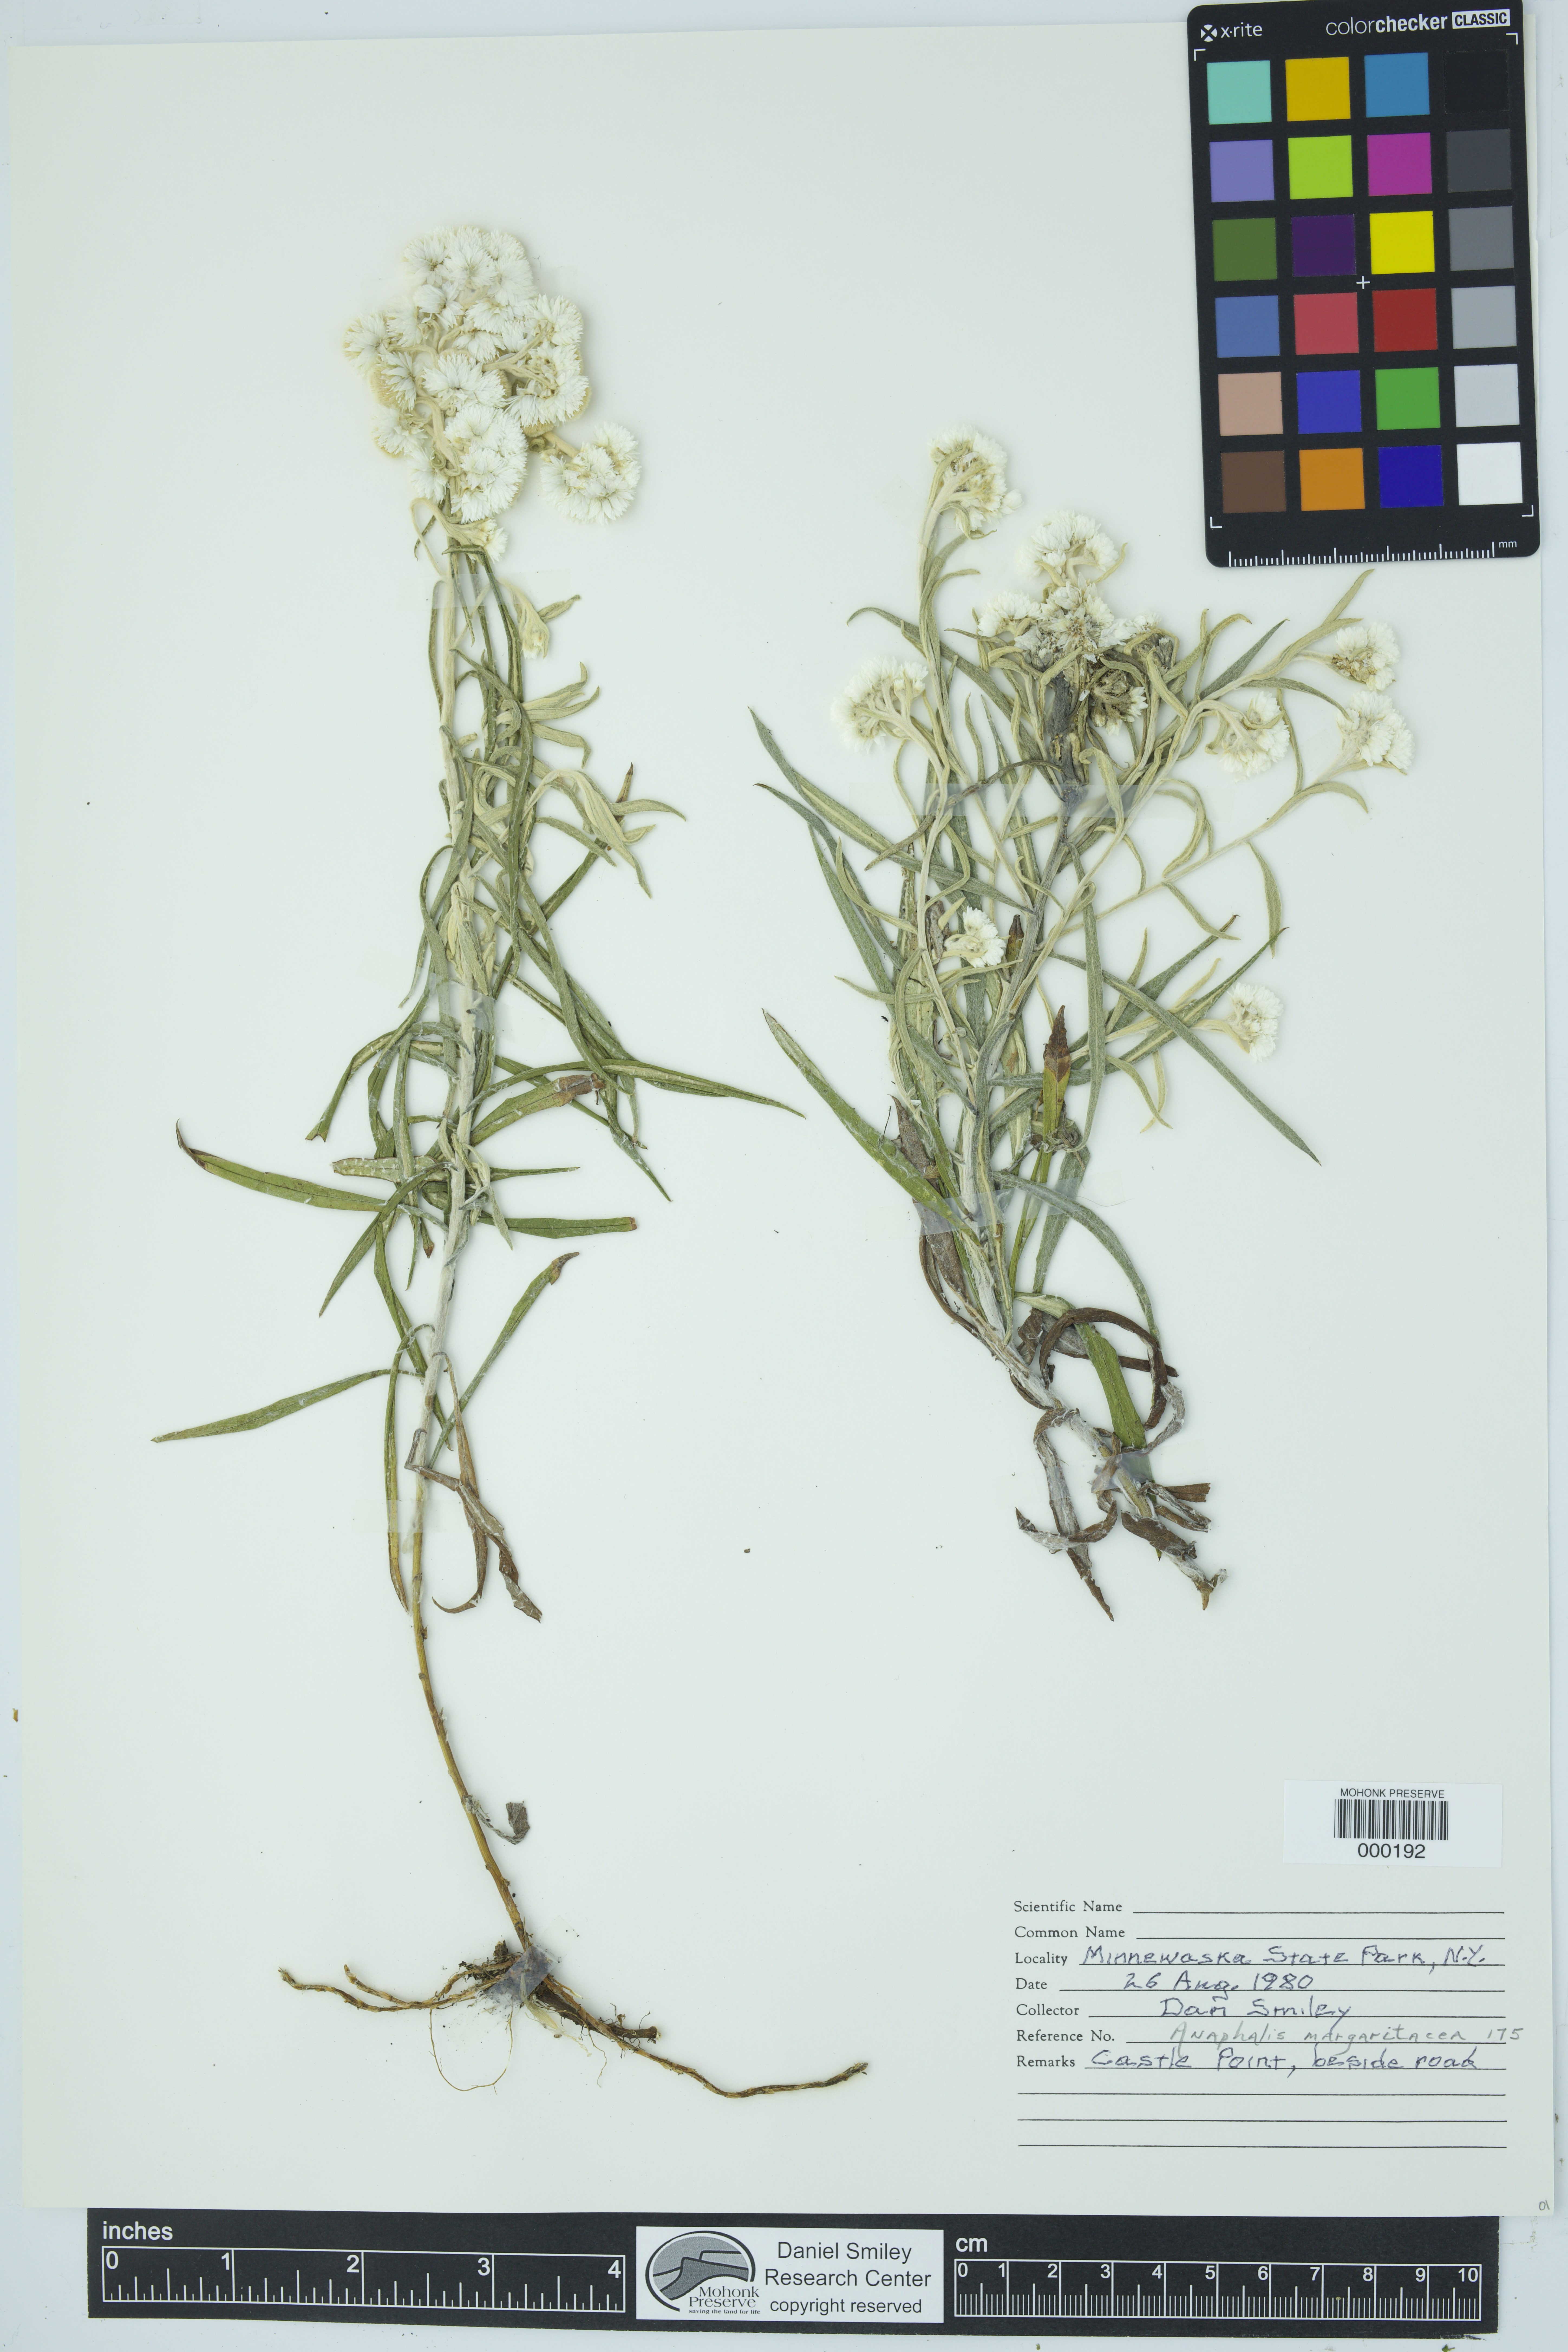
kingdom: Plantae
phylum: Tracheophyta
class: Magnoliopsida
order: Asterales
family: Asteraceae
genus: Anaphalis
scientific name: Anaphalis margaritacea
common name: Pearly everlasting
